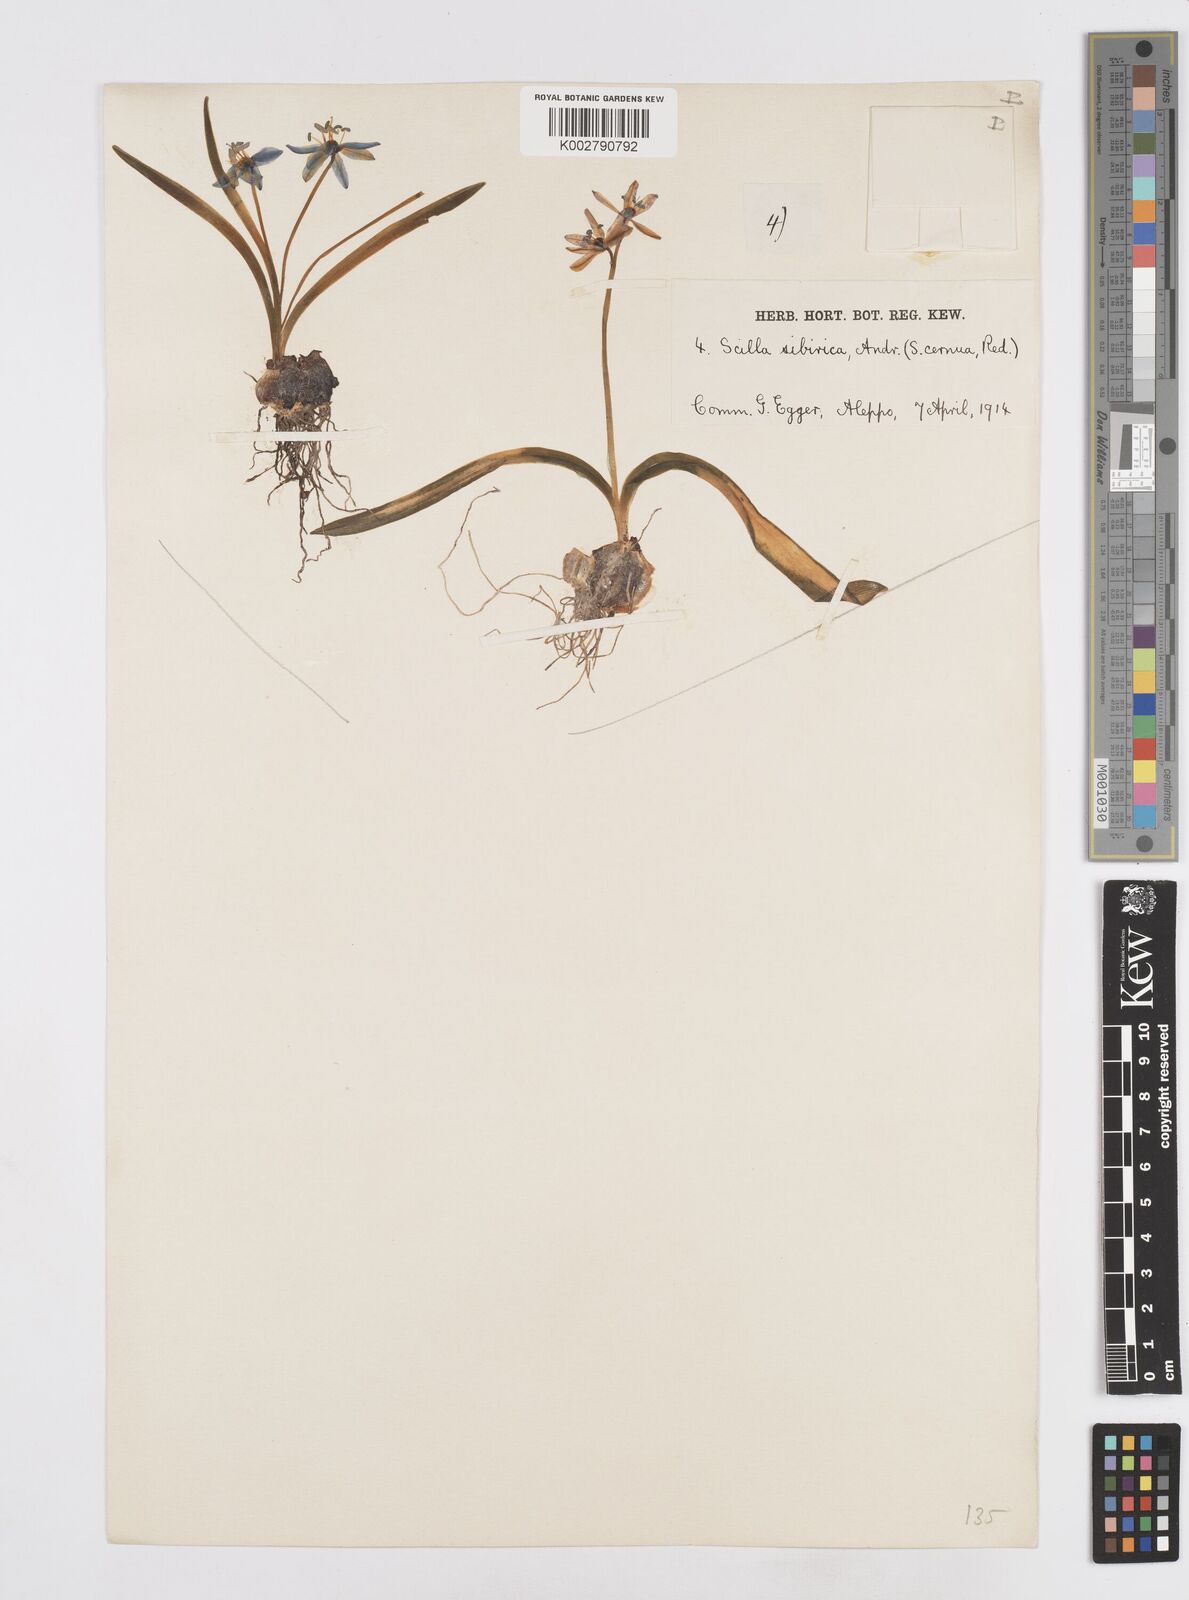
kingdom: Plantae
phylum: Tracheophyta
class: Liliopsida
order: Asparagales
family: Asparagaceae
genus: Scilla
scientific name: Scilla siberica
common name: Siberian squill
